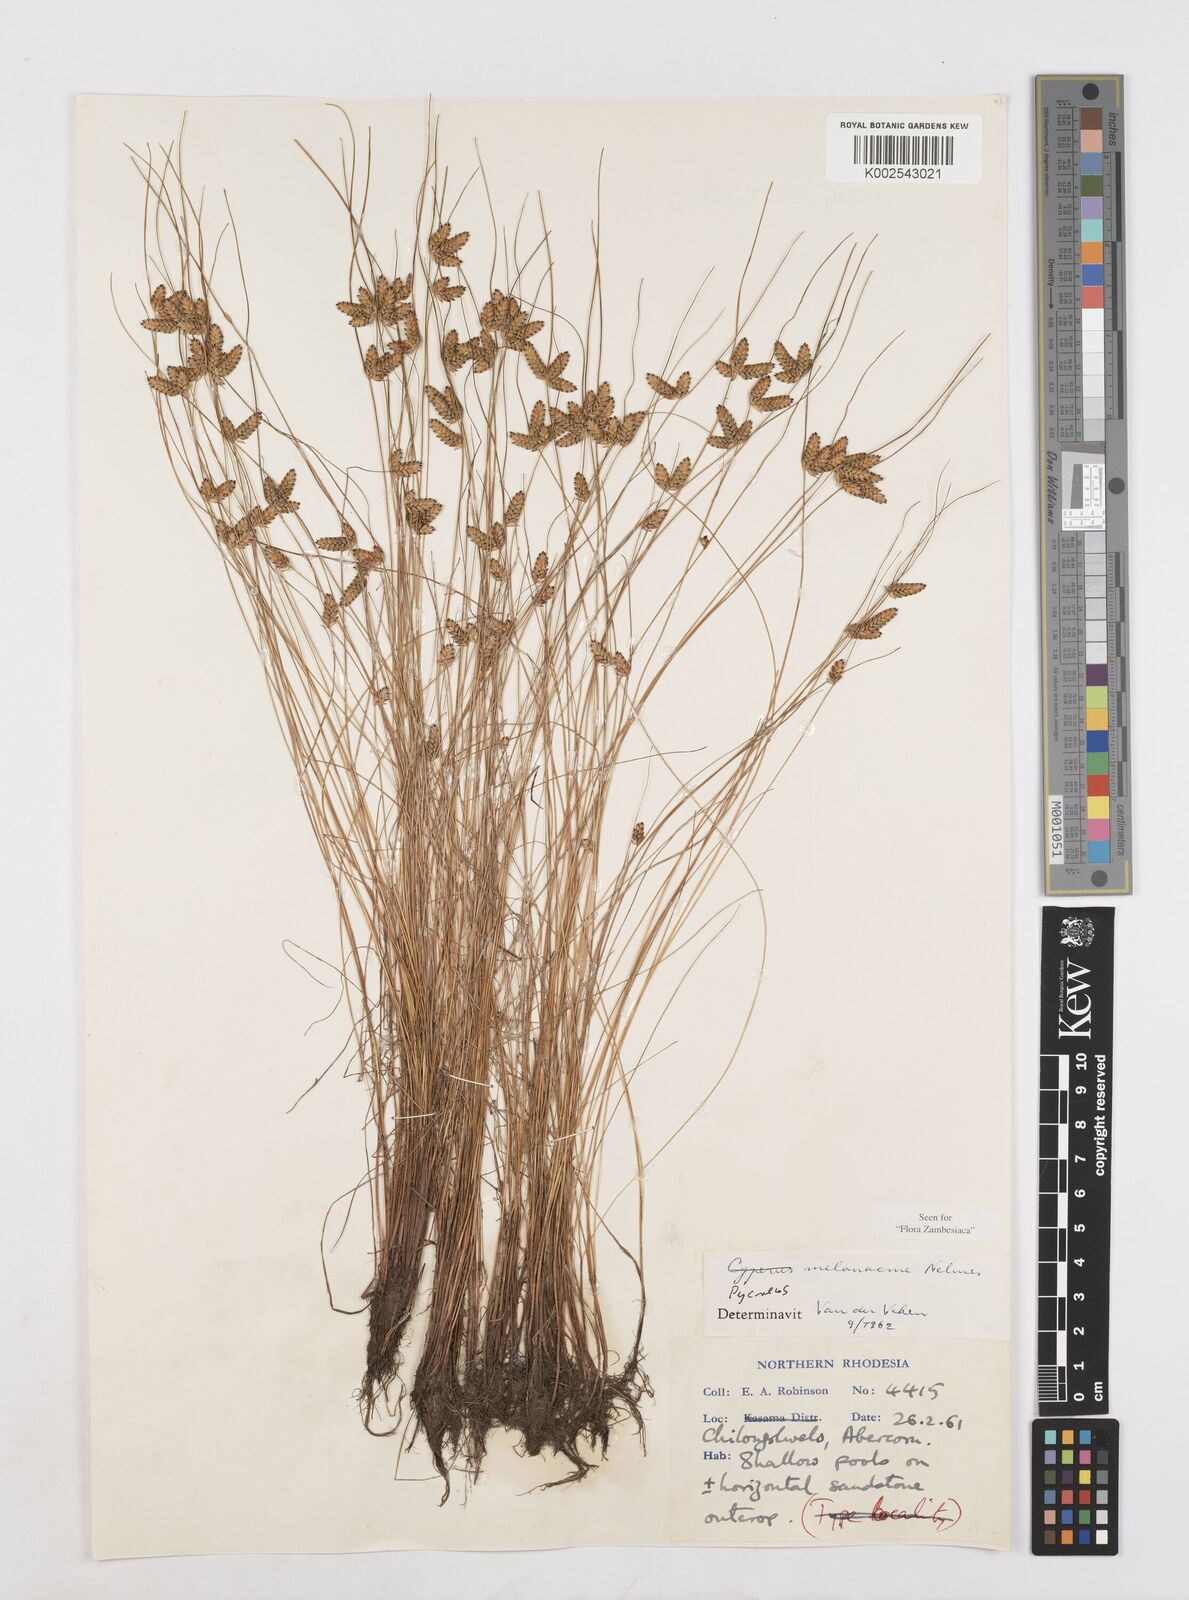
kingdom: Plantae
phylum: Tracheophyta
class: Liliopsida
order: Poales
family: Cyperaceae
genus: Cyperus
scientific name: Cyperus melanacme
